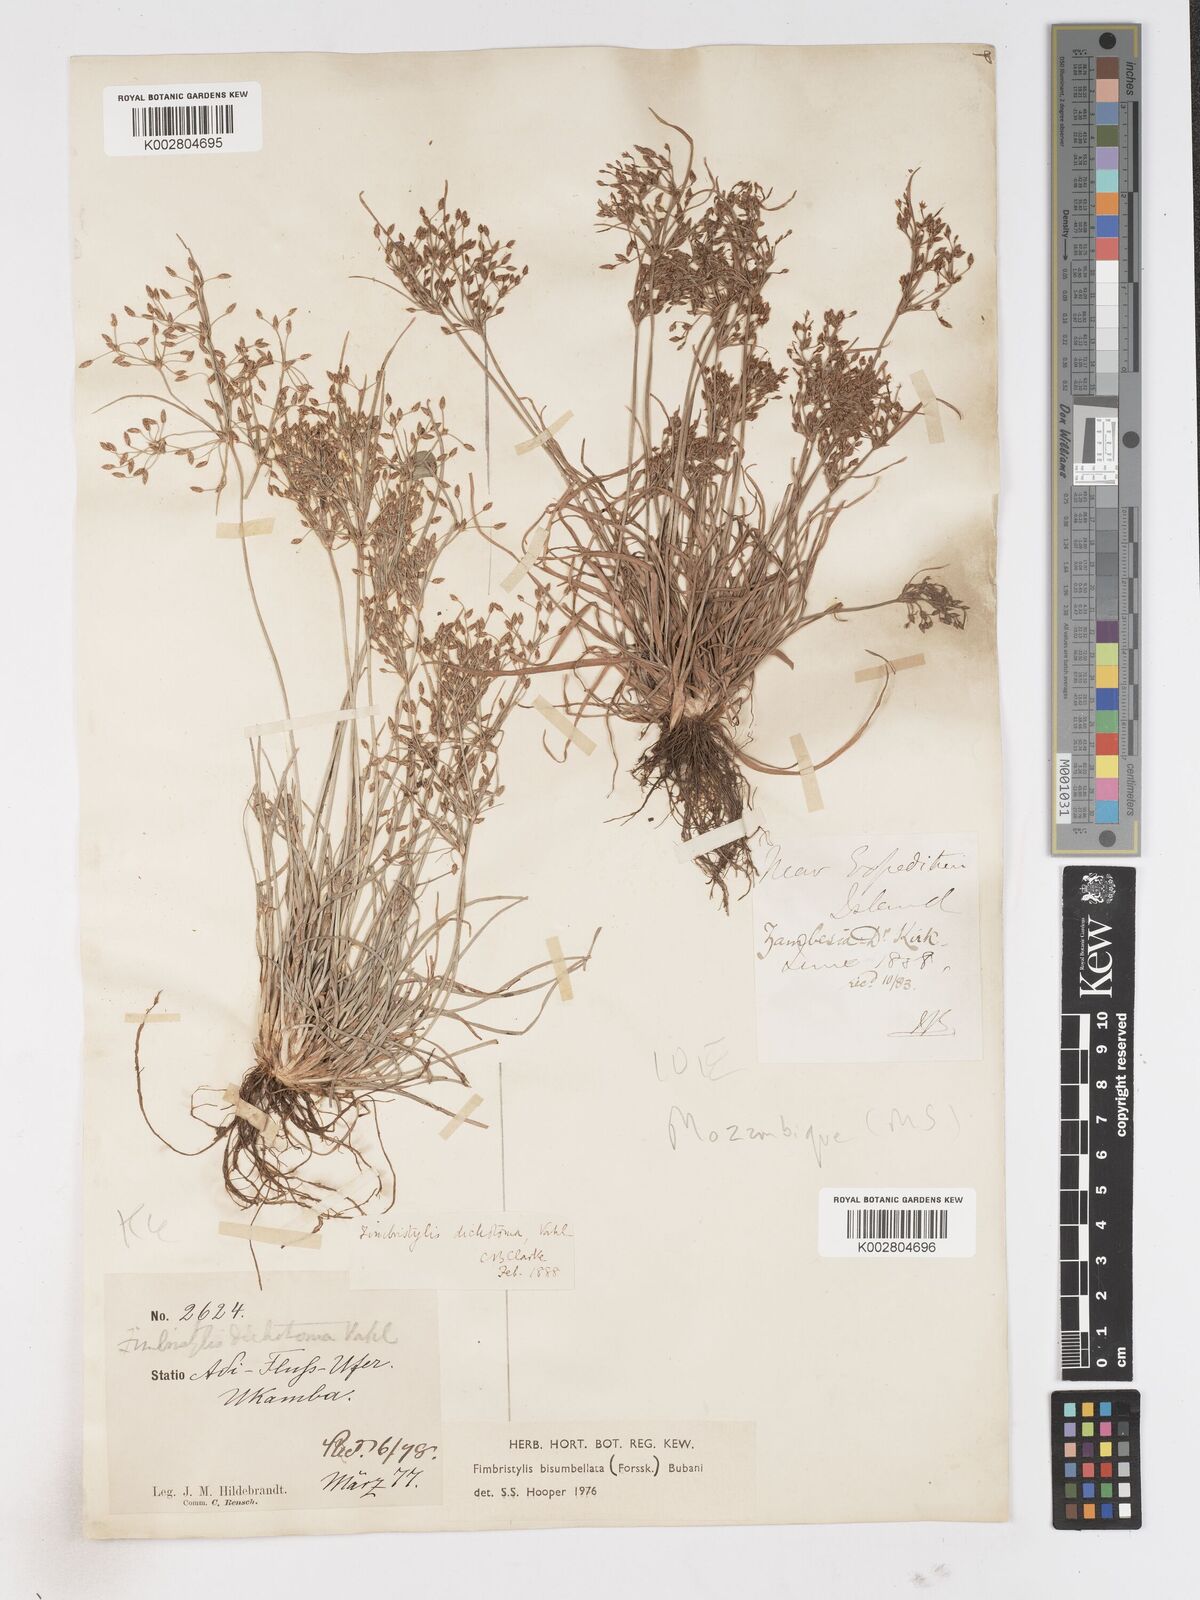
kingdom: Plantae
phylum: Tracheophyta
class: Liliopsida
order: Poales
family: Cyperaceae
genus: Fimbristylis
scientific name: Fimbristylis bisumbellata
